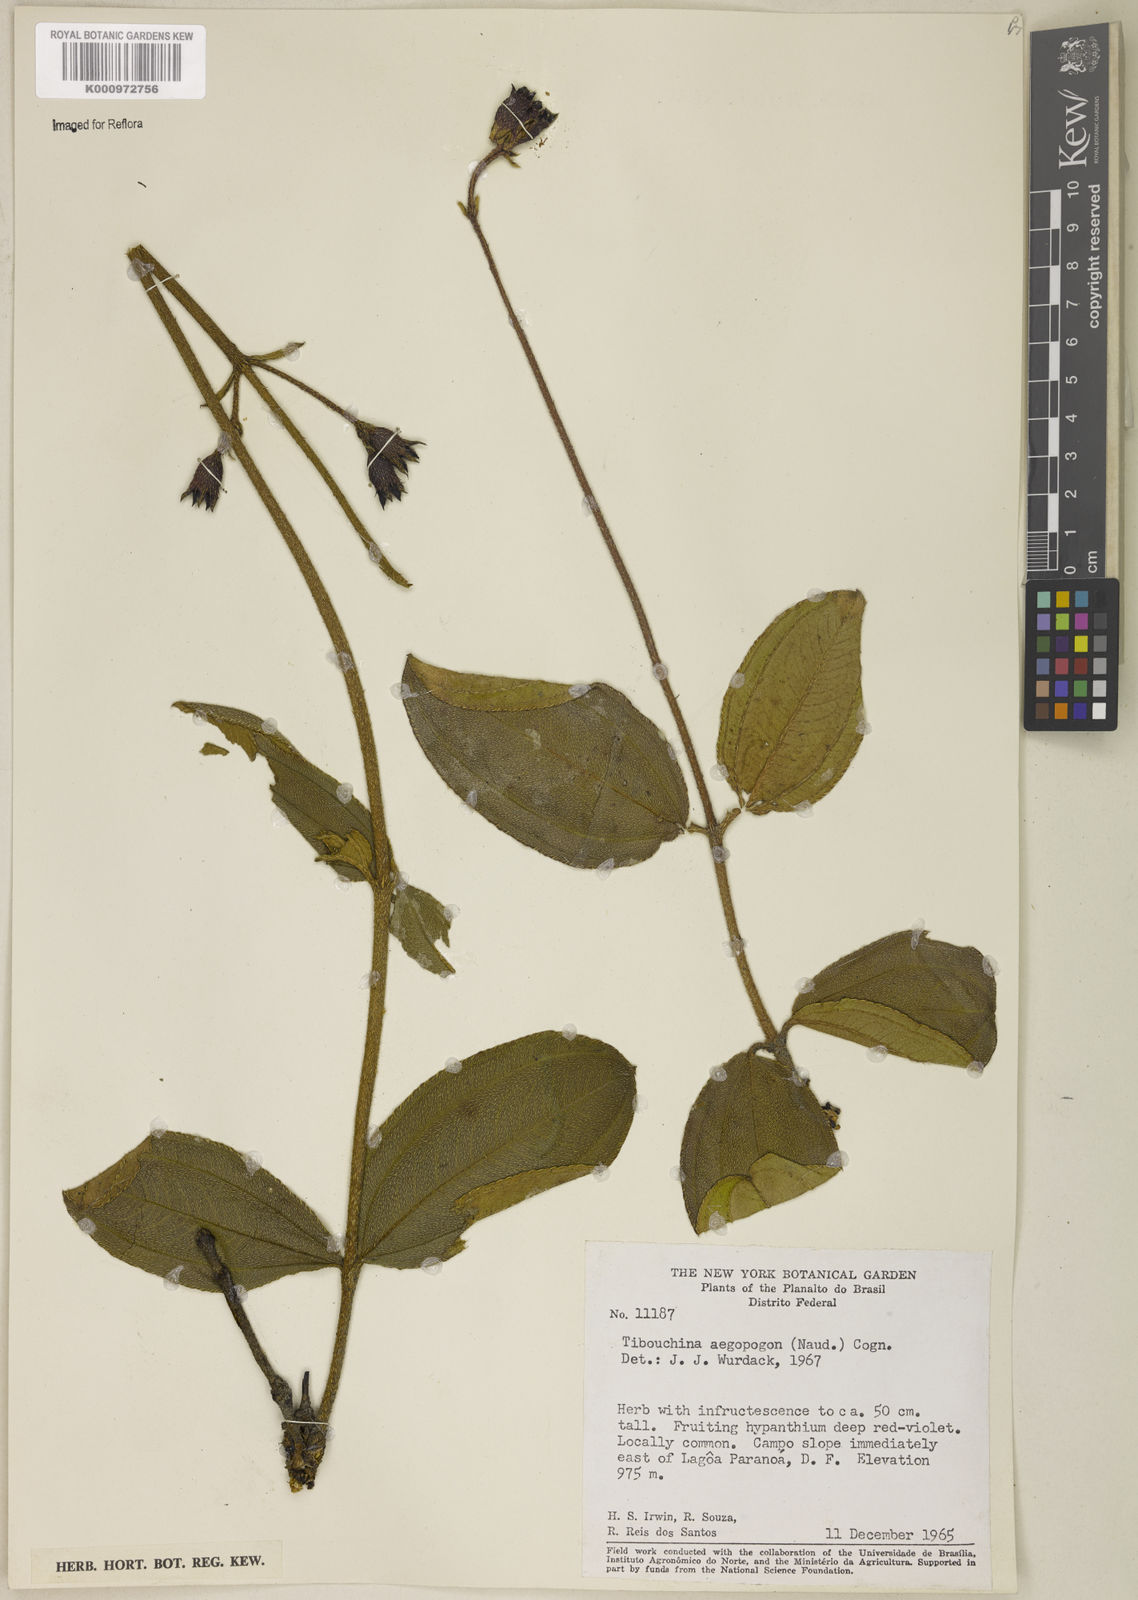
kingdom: Plantae
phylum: Tracheophyta
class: Magnoliopsida
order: Myrtales
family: Melastomataceae
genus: Pleroma
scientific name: Pleroma aegopogon
